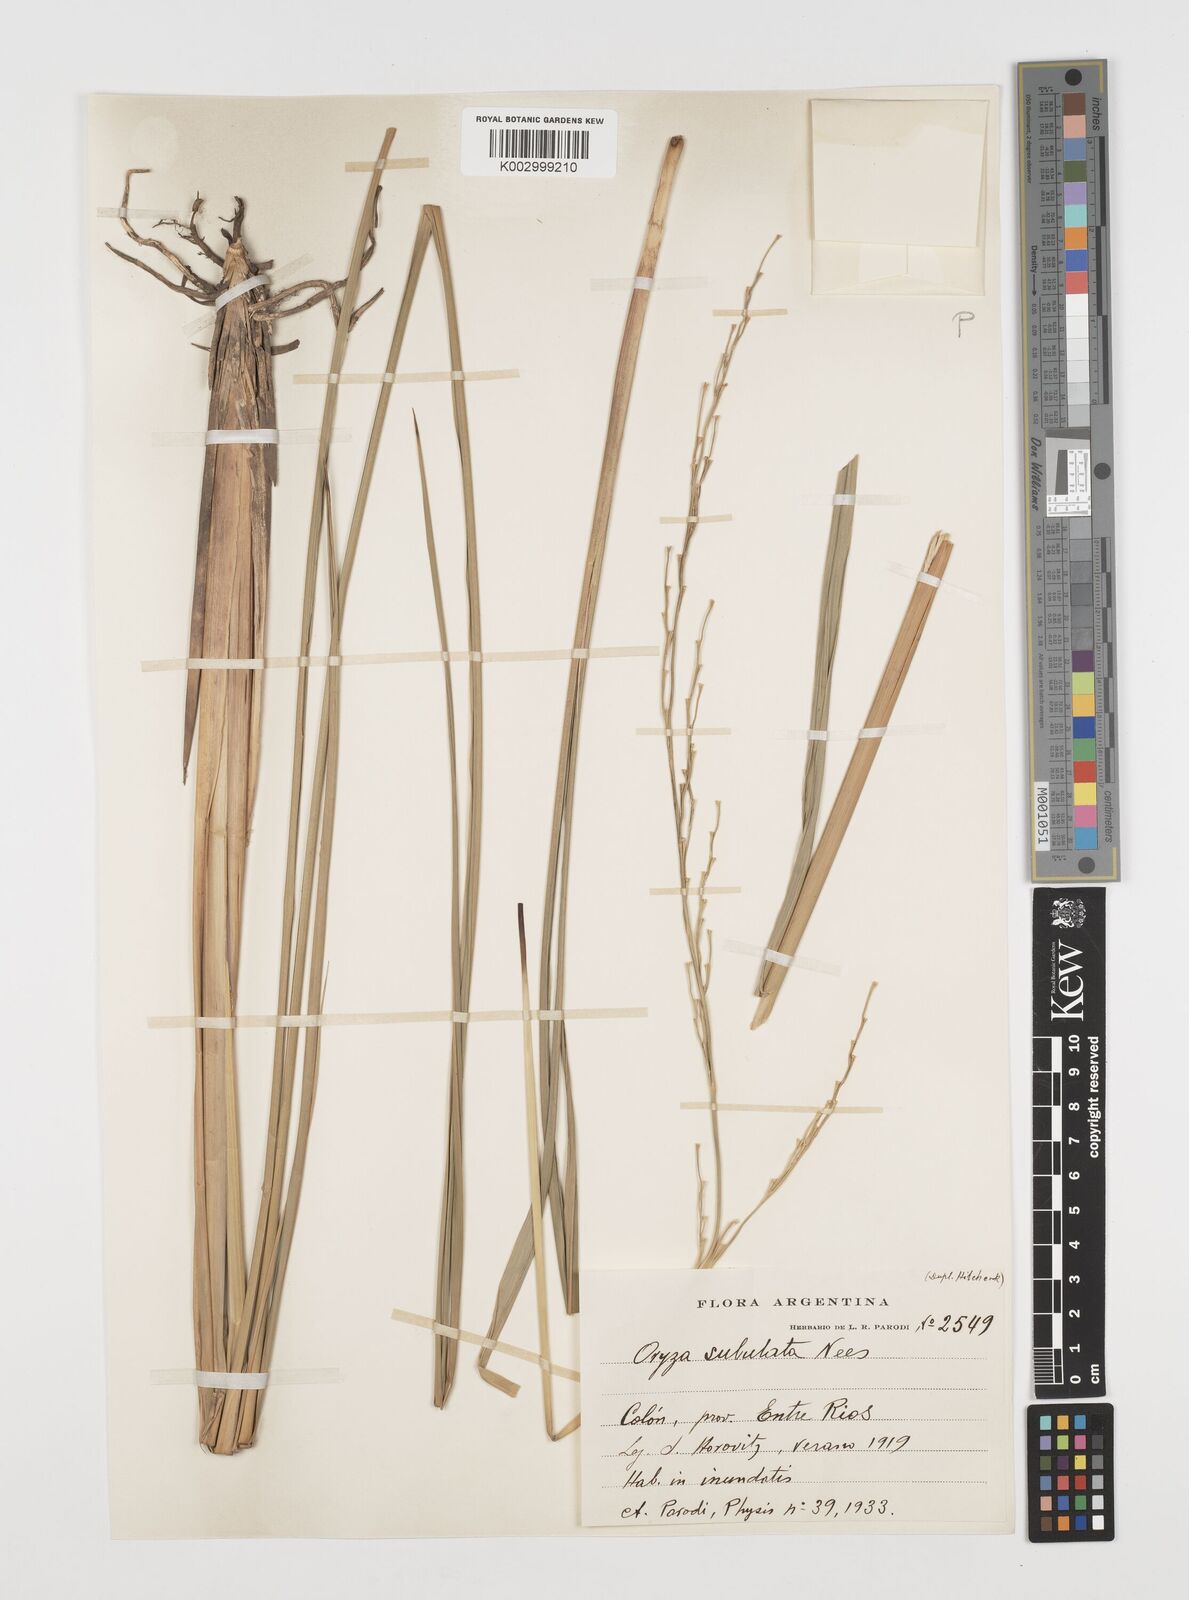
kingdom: Plantae
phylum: Tracheophyta
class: Liliopsida
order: Poales
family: Poaceae
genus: Rhynchoryza
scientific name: Rhynchoryza subulata
